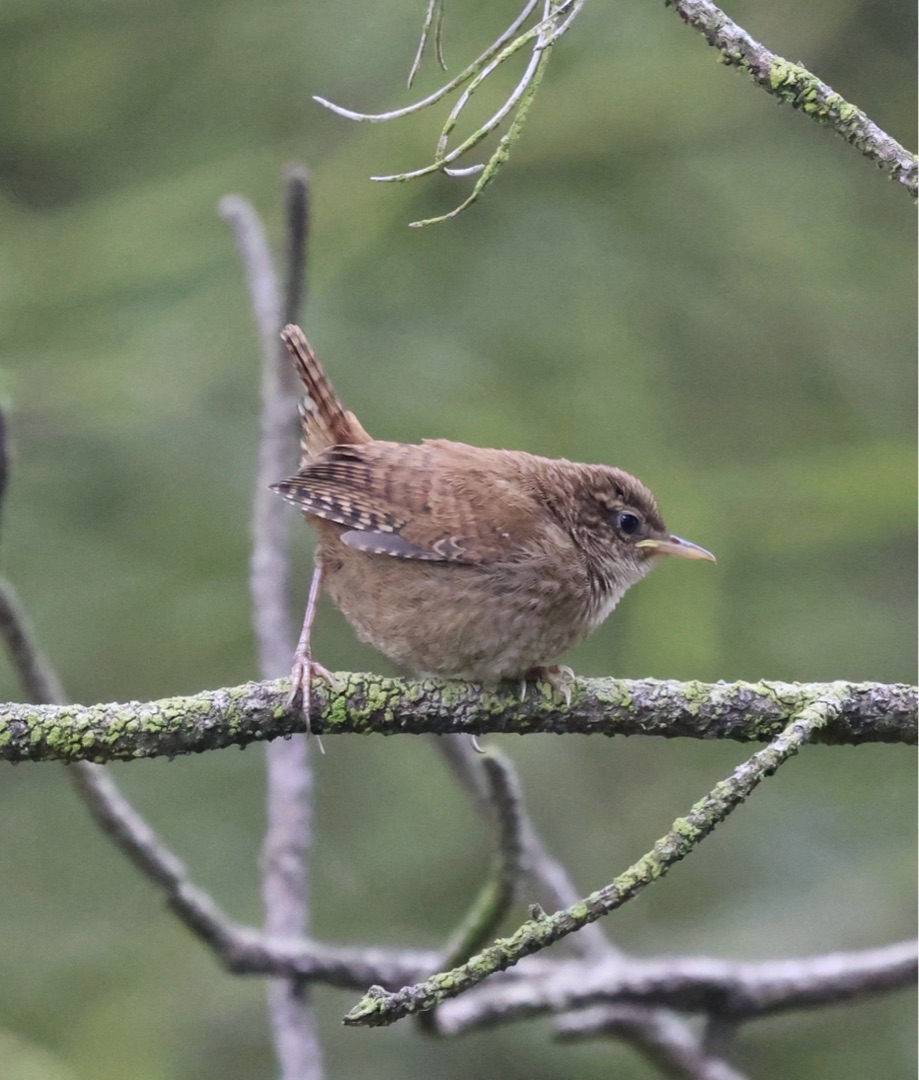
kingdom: Animalia
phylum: Chordata
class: Aves
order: Passeriformes
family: Troglodytidae
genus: Troglodytes
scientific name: Troglodytes troglodytes
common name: Gærdesmutte
